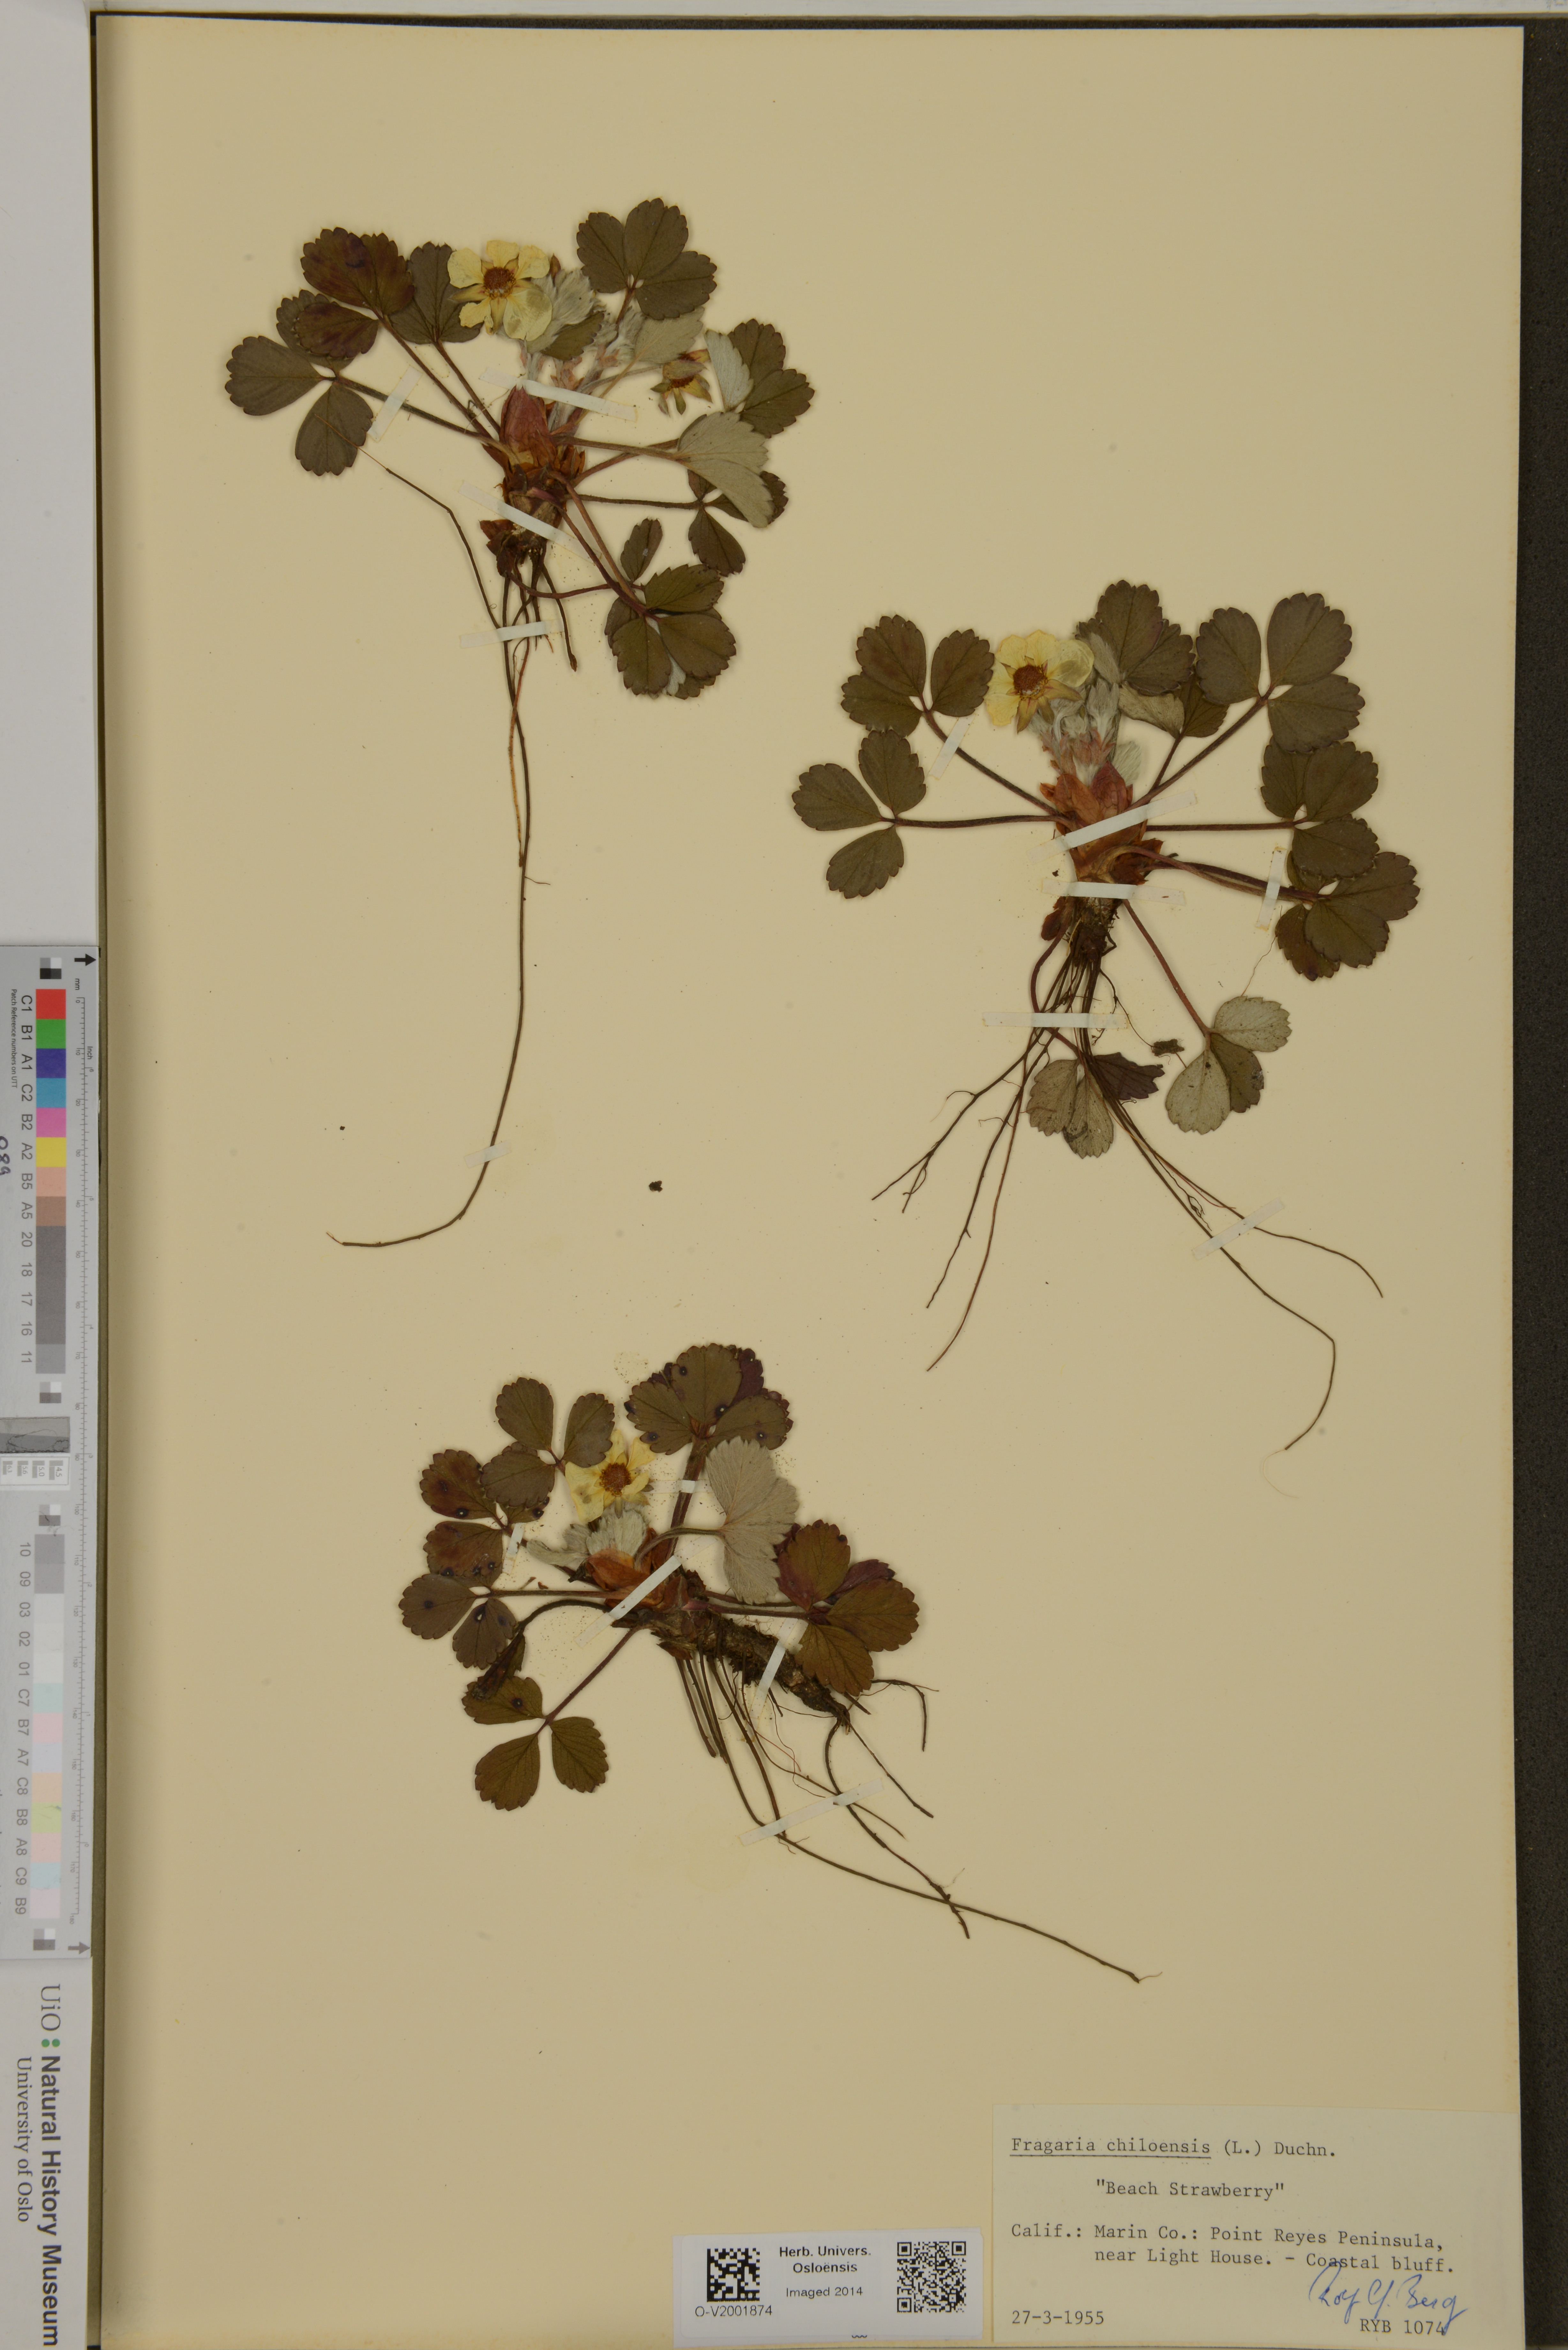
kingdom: Plantae
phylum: Tracheophyta
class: Magnoliopsida
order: Rosales
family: Rosaceae
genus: Fragaria
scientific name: Fragaria chiloensis
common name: Beach strawberry
